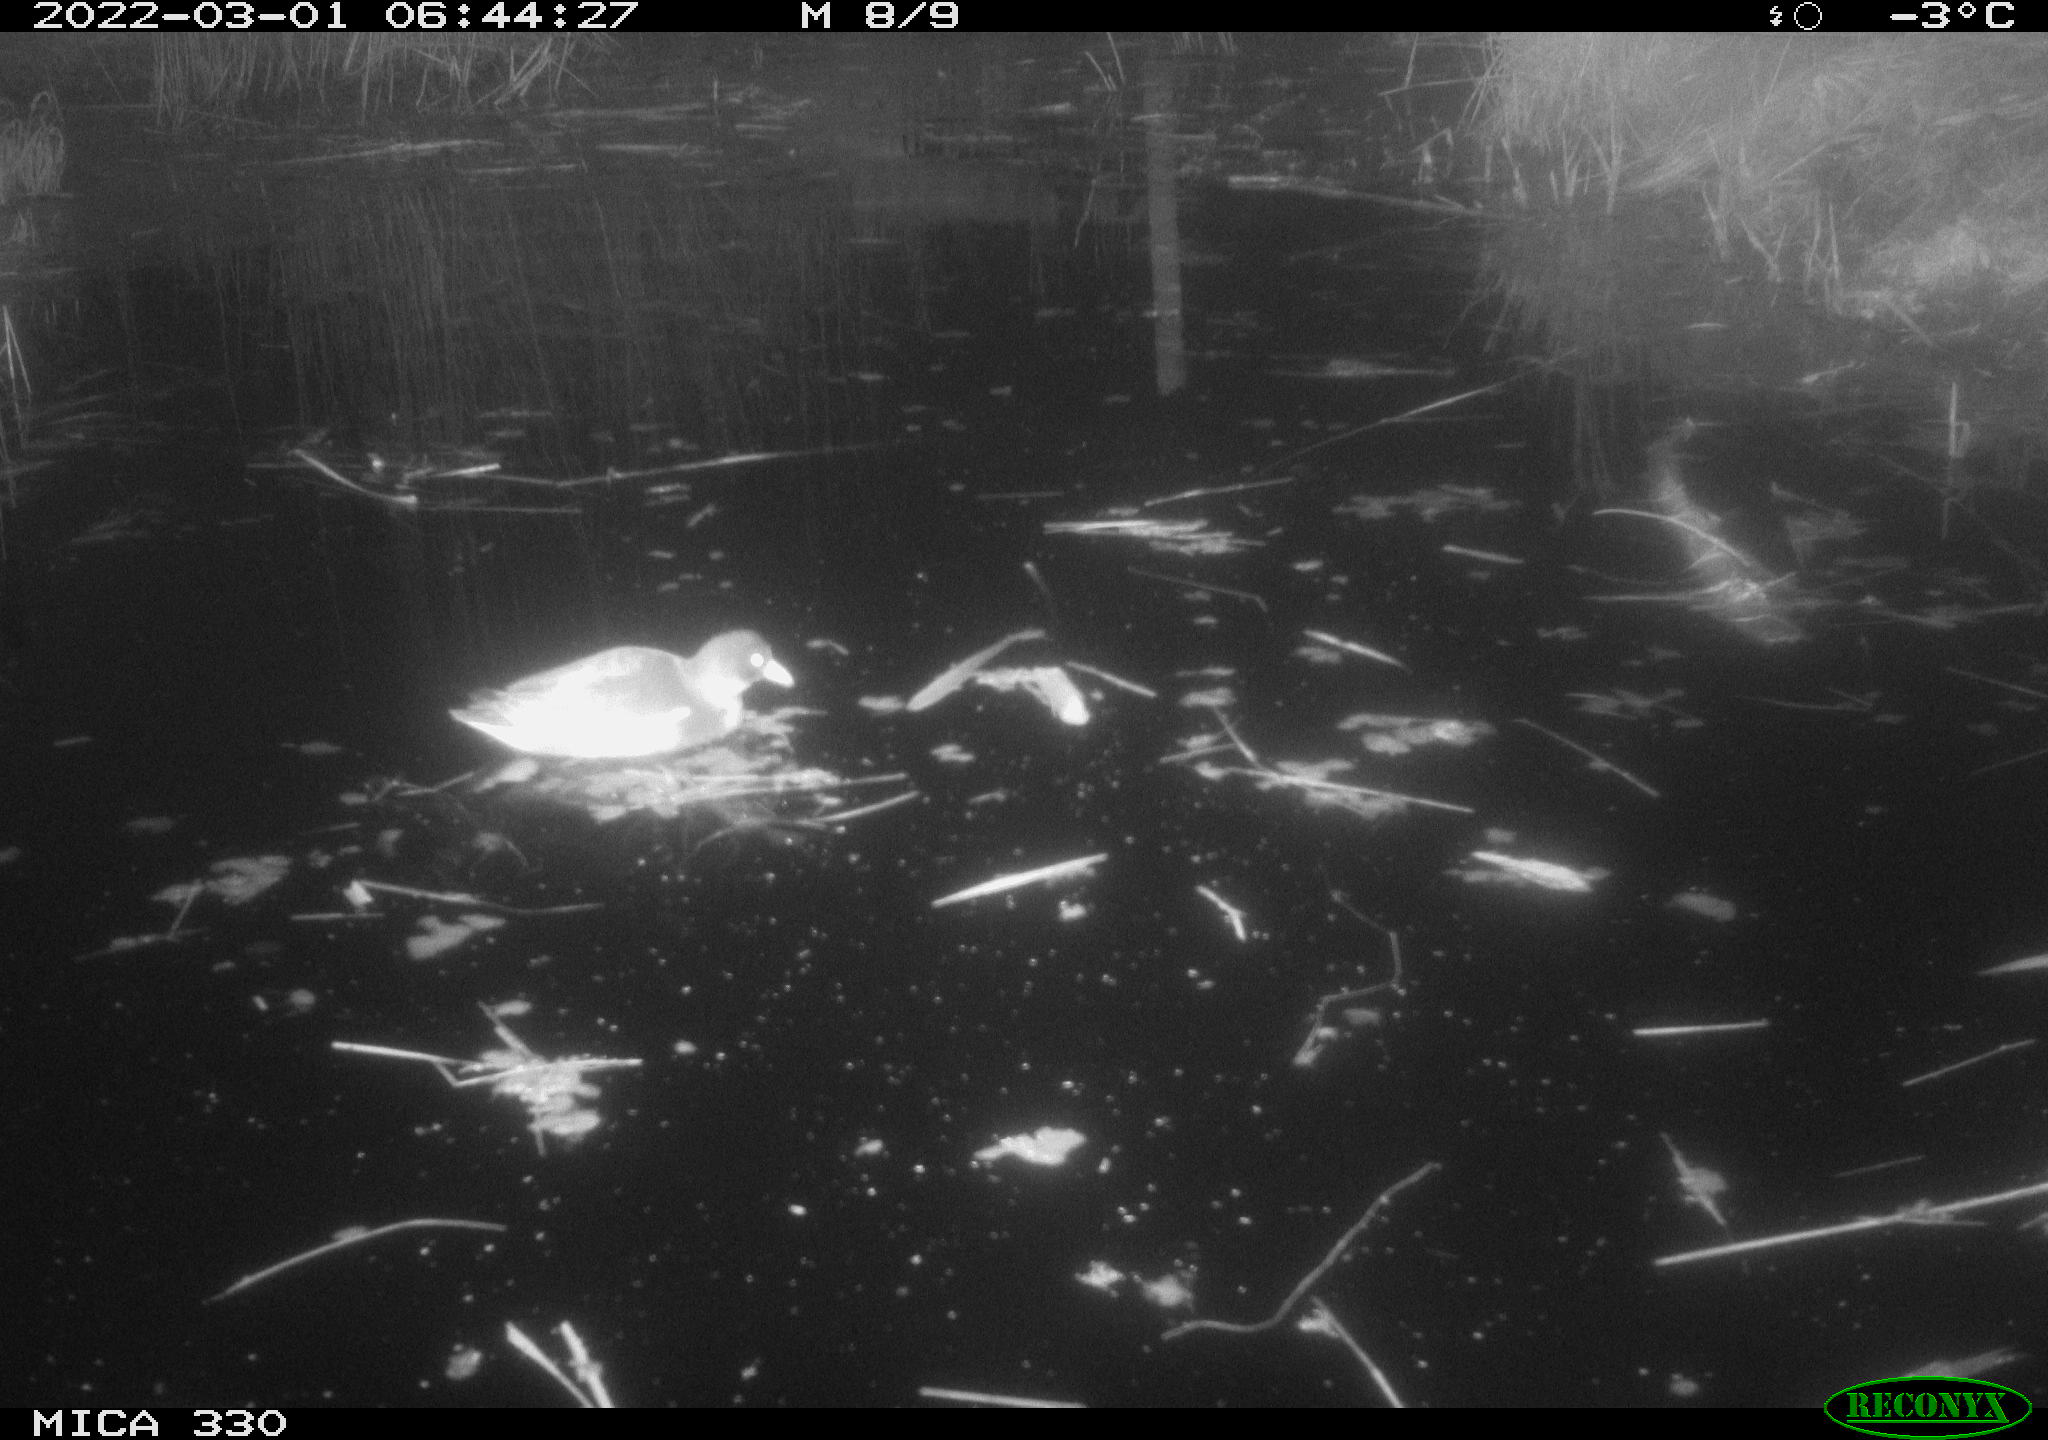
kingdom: Animalia
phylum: Chordata
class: Aves
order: Gruiformes
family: Rallidae
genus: Gallinula
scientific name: Gallinula chloropus
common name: Common moorhen
